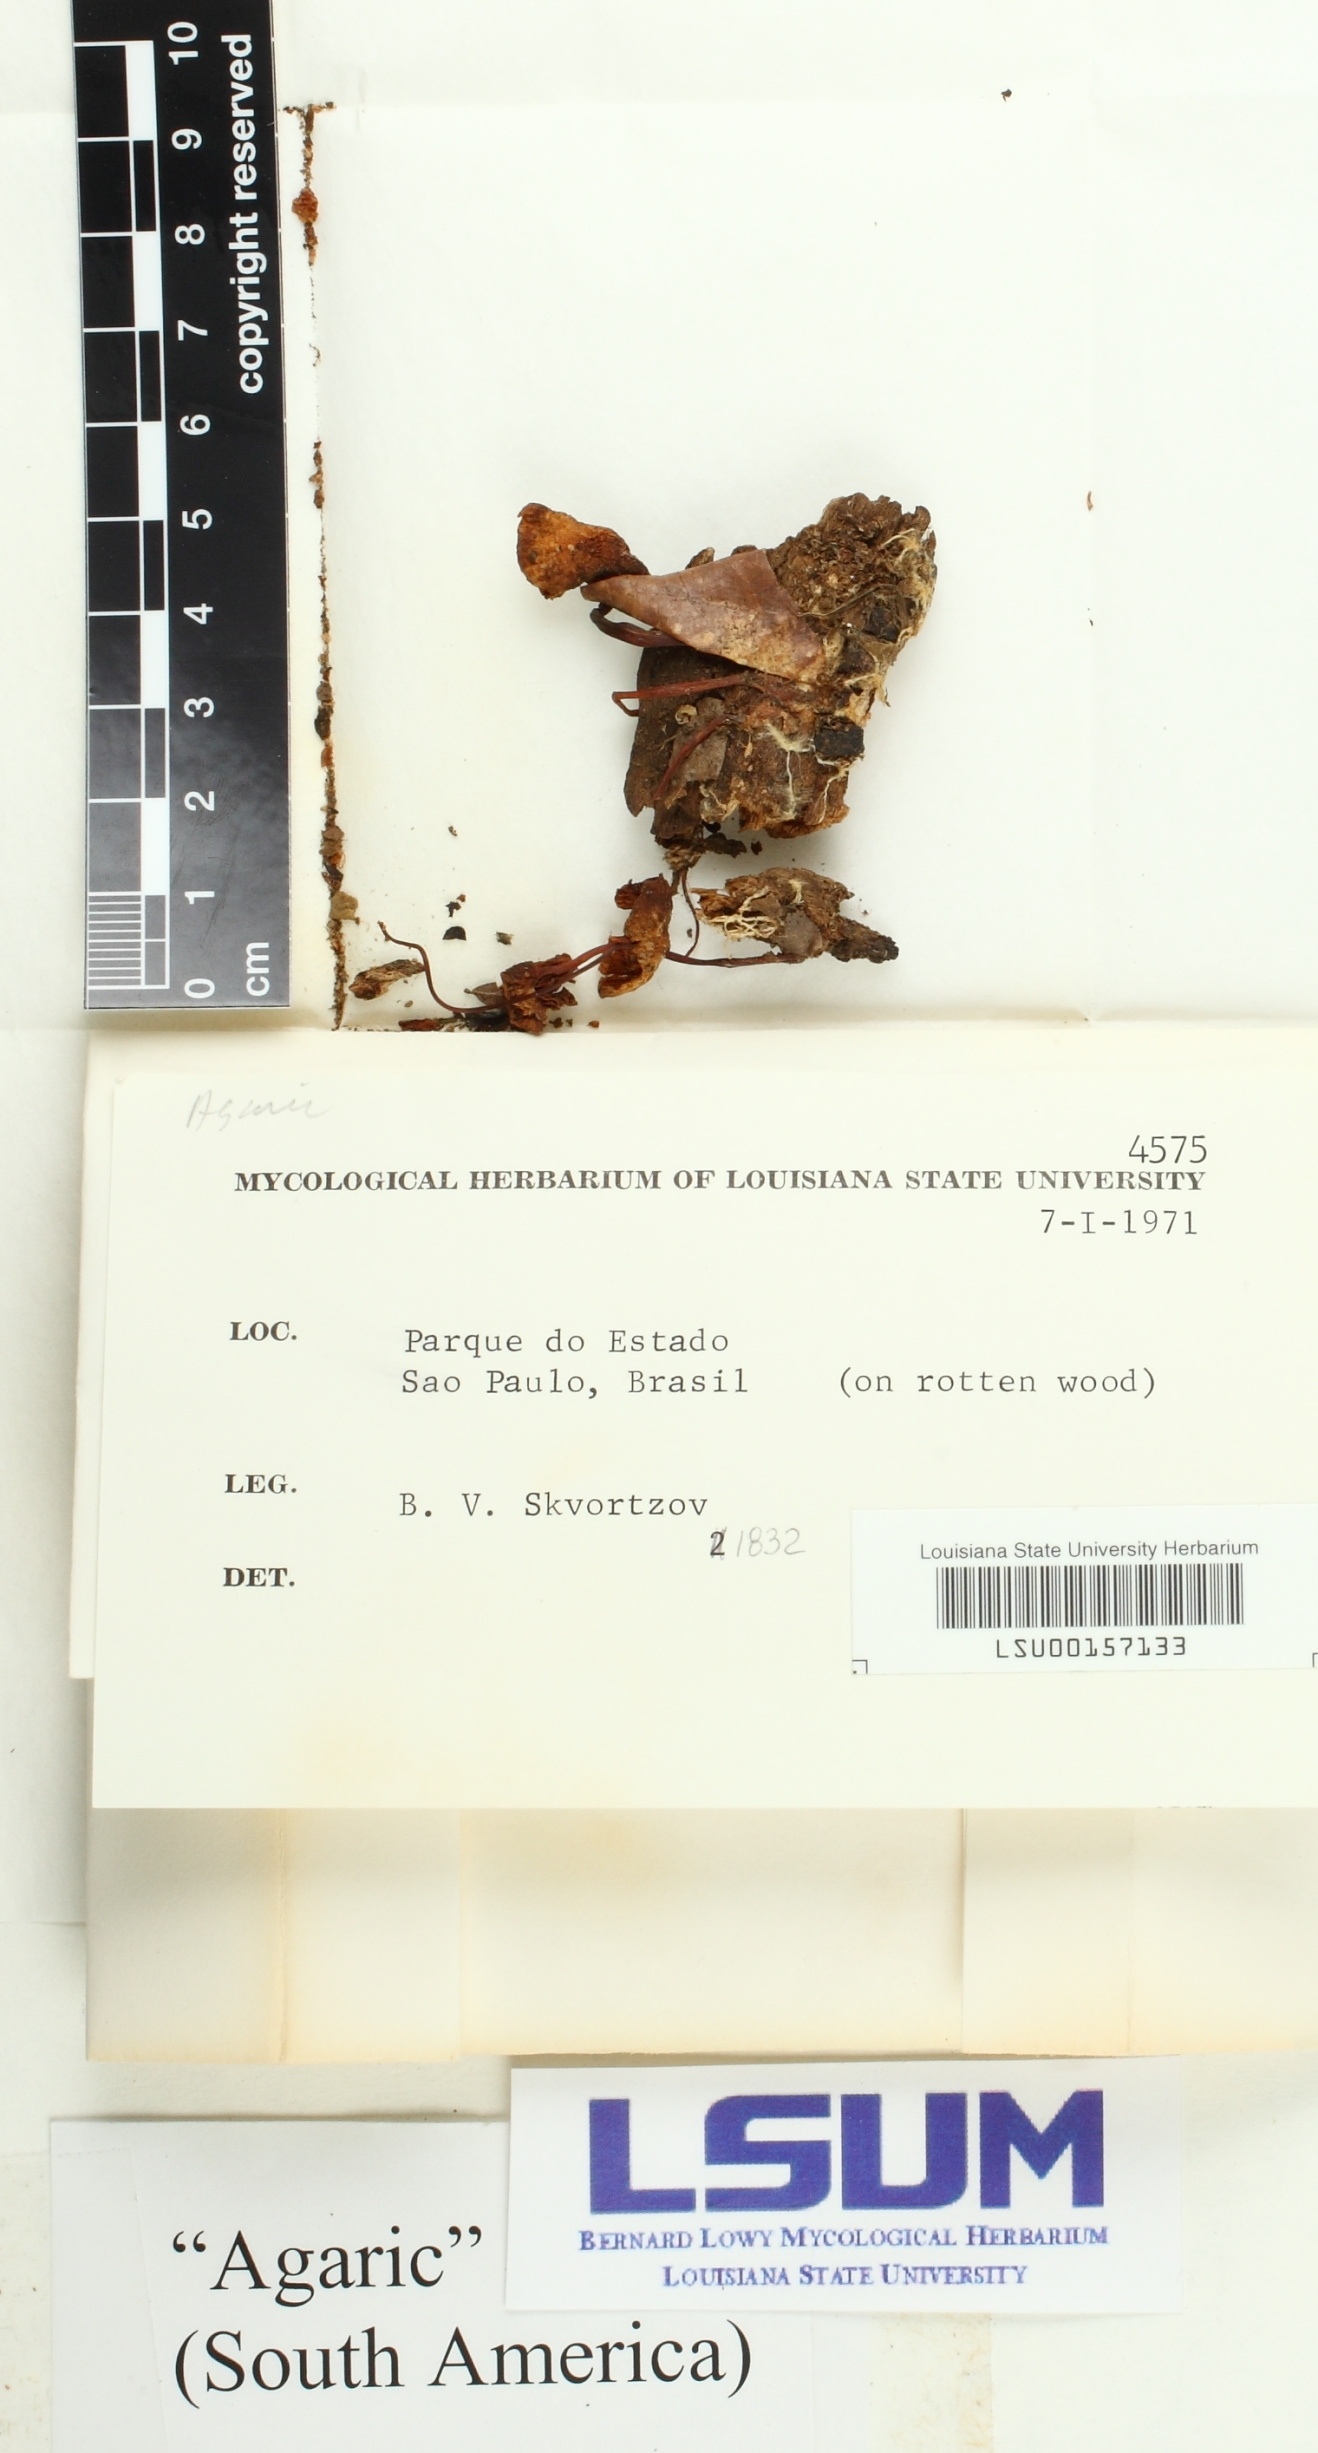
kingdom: Fungi
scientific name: Fungi
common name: Fungi
